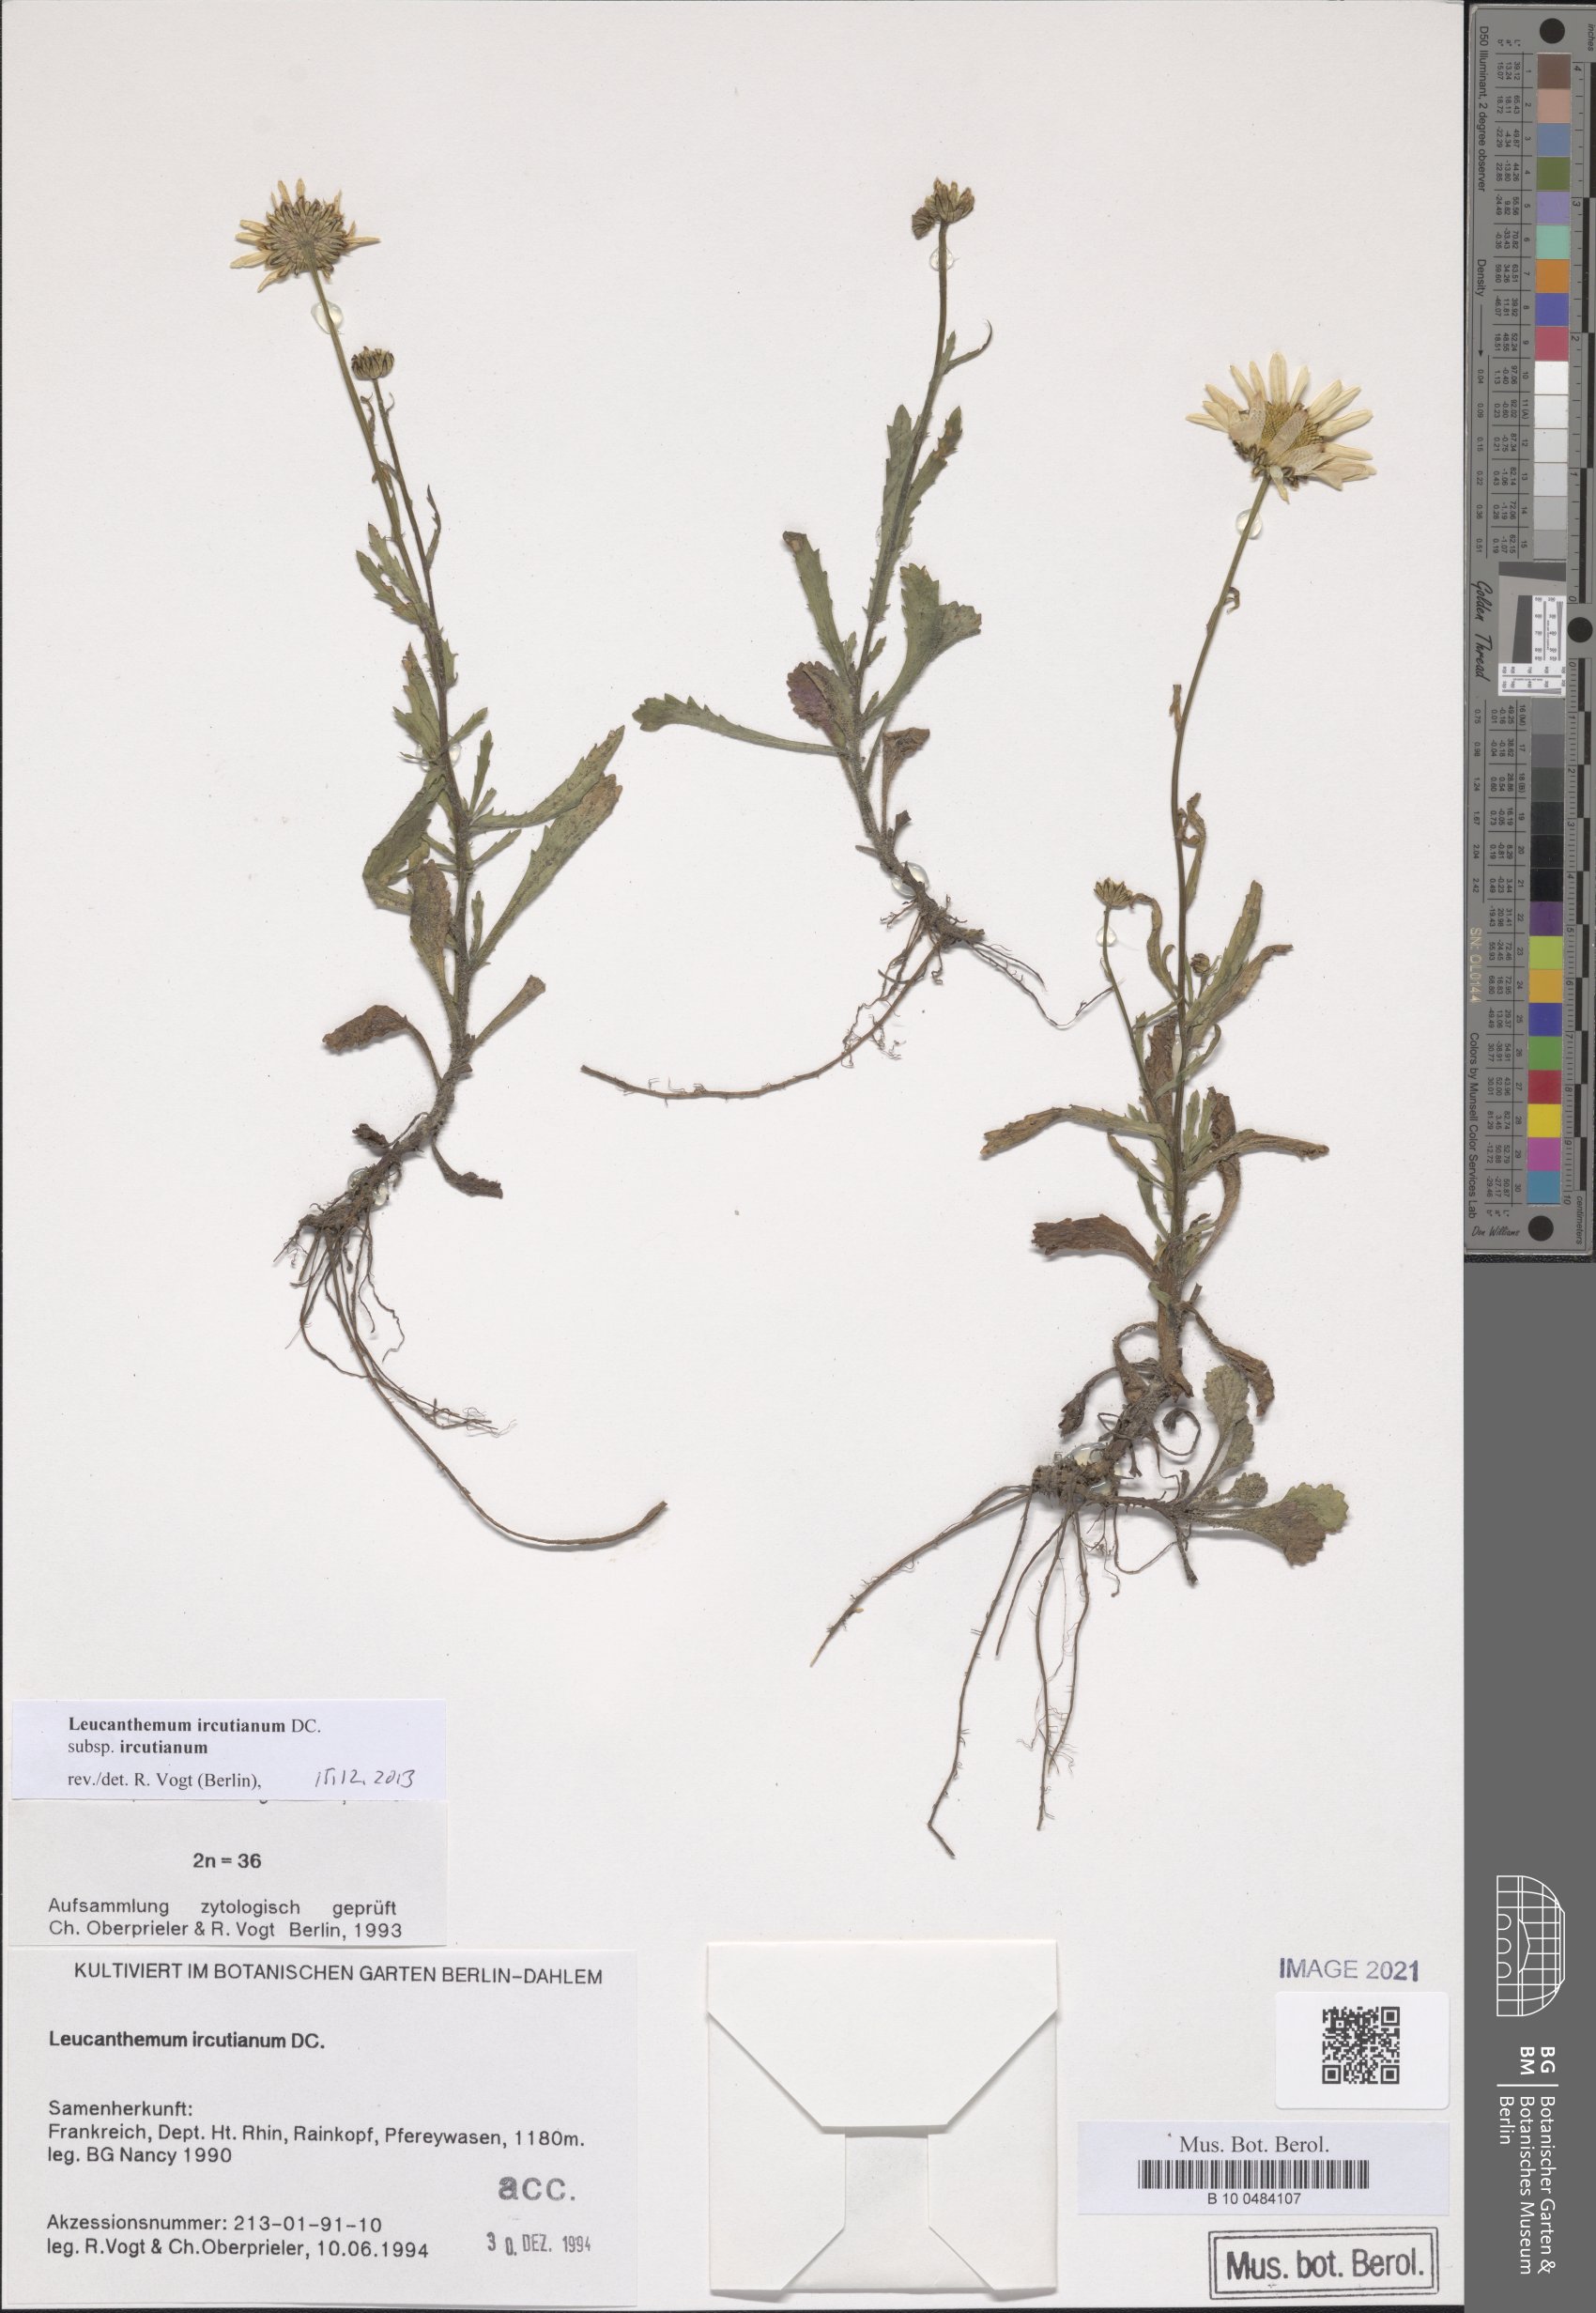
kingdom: Plantae
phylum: Tracheophyta
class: Magnoliopsida
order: Asterales
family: Asteraceae
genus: Leucanthemum
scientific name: Leucanthemum ircutianum
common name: Daisy
